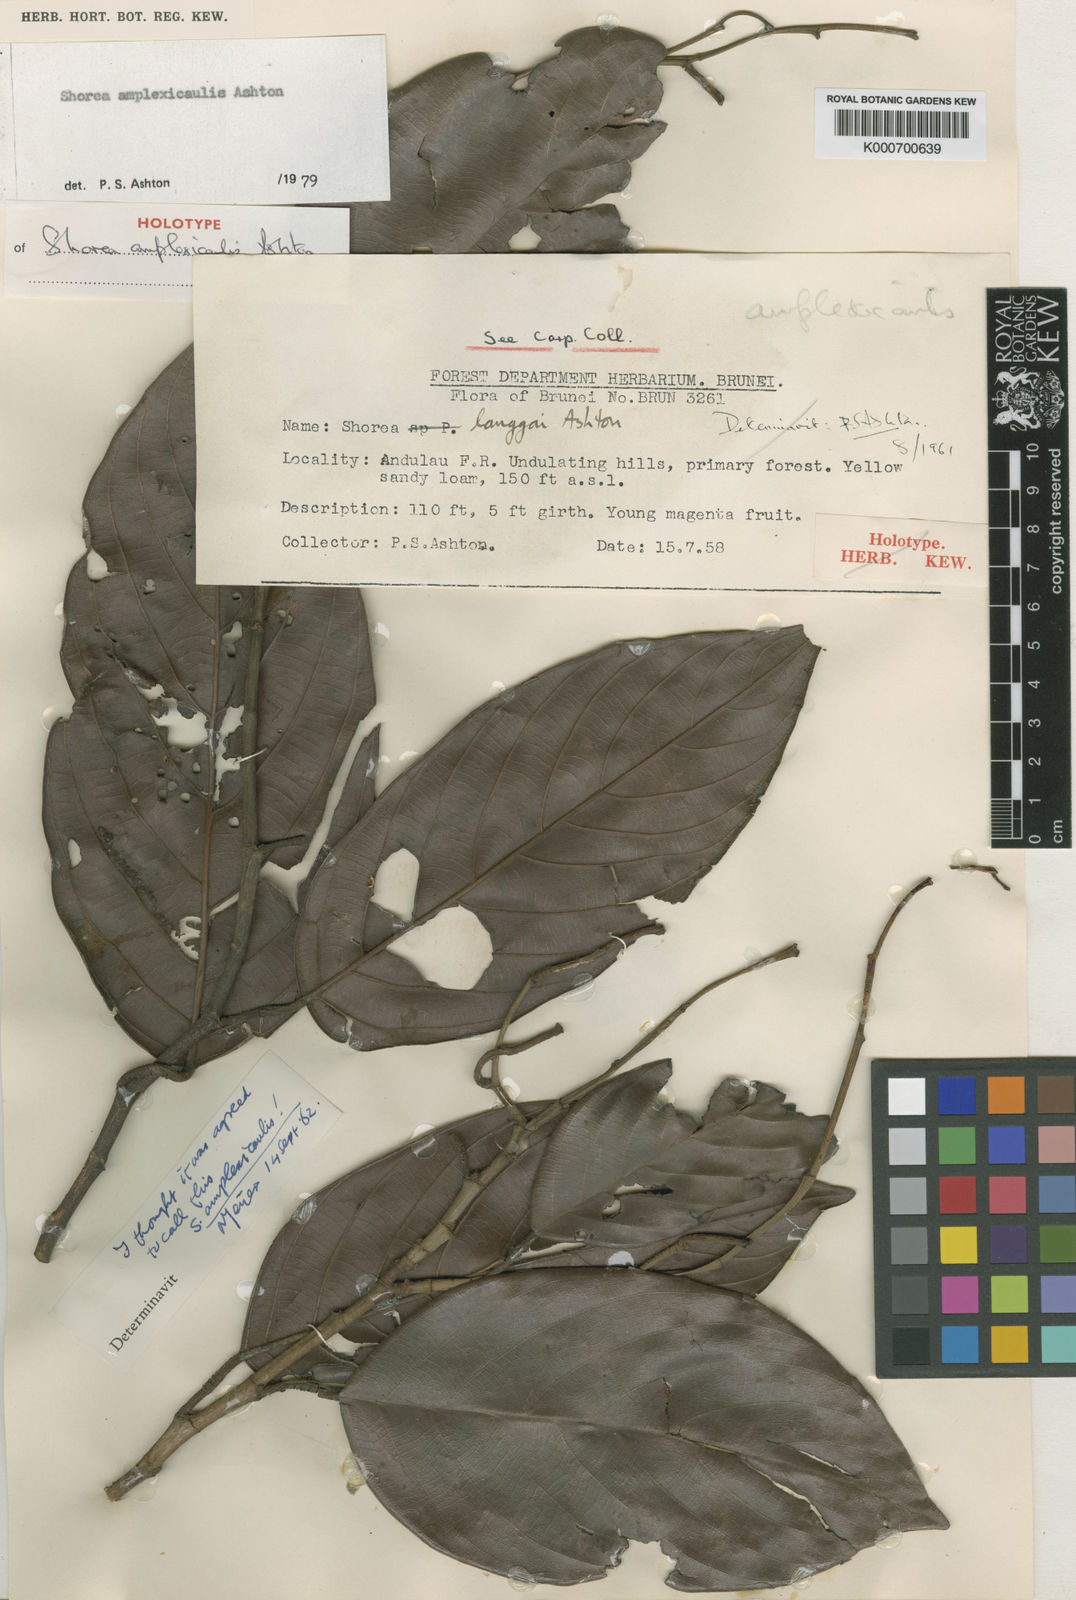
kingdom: Plantae
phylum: Tracheophyta
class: Magnoliopsida
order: Malvales
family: Dipterocarpaceae
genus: Shorea
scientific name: Shorea amplexicaulis
